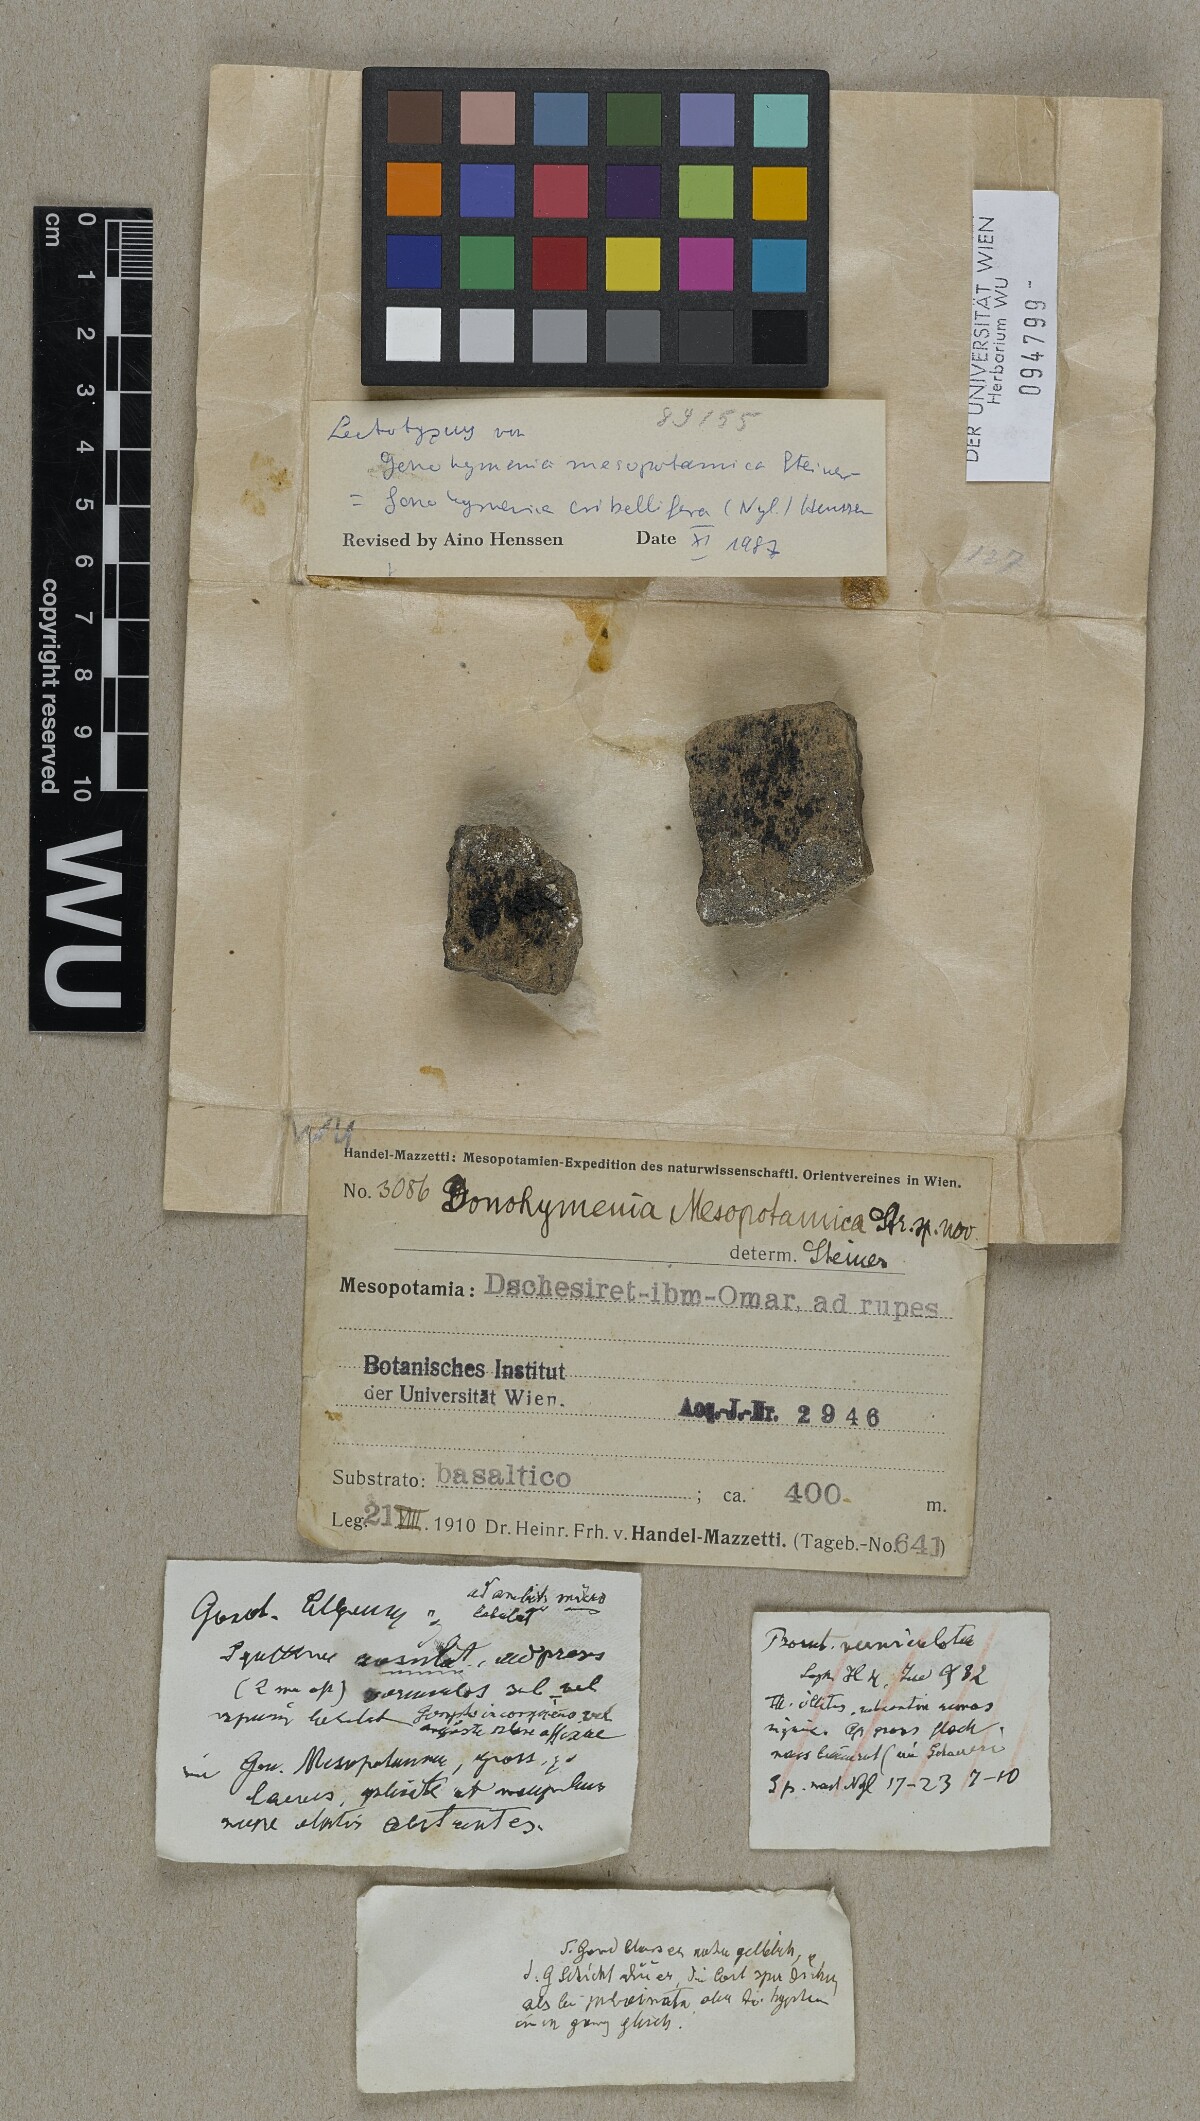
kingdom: Fungi
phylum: Ascomycota
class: Lichinomycetes
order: Lichinales
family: Lichinaceae
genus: Lichinella
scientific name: Lichinella cribellifera
